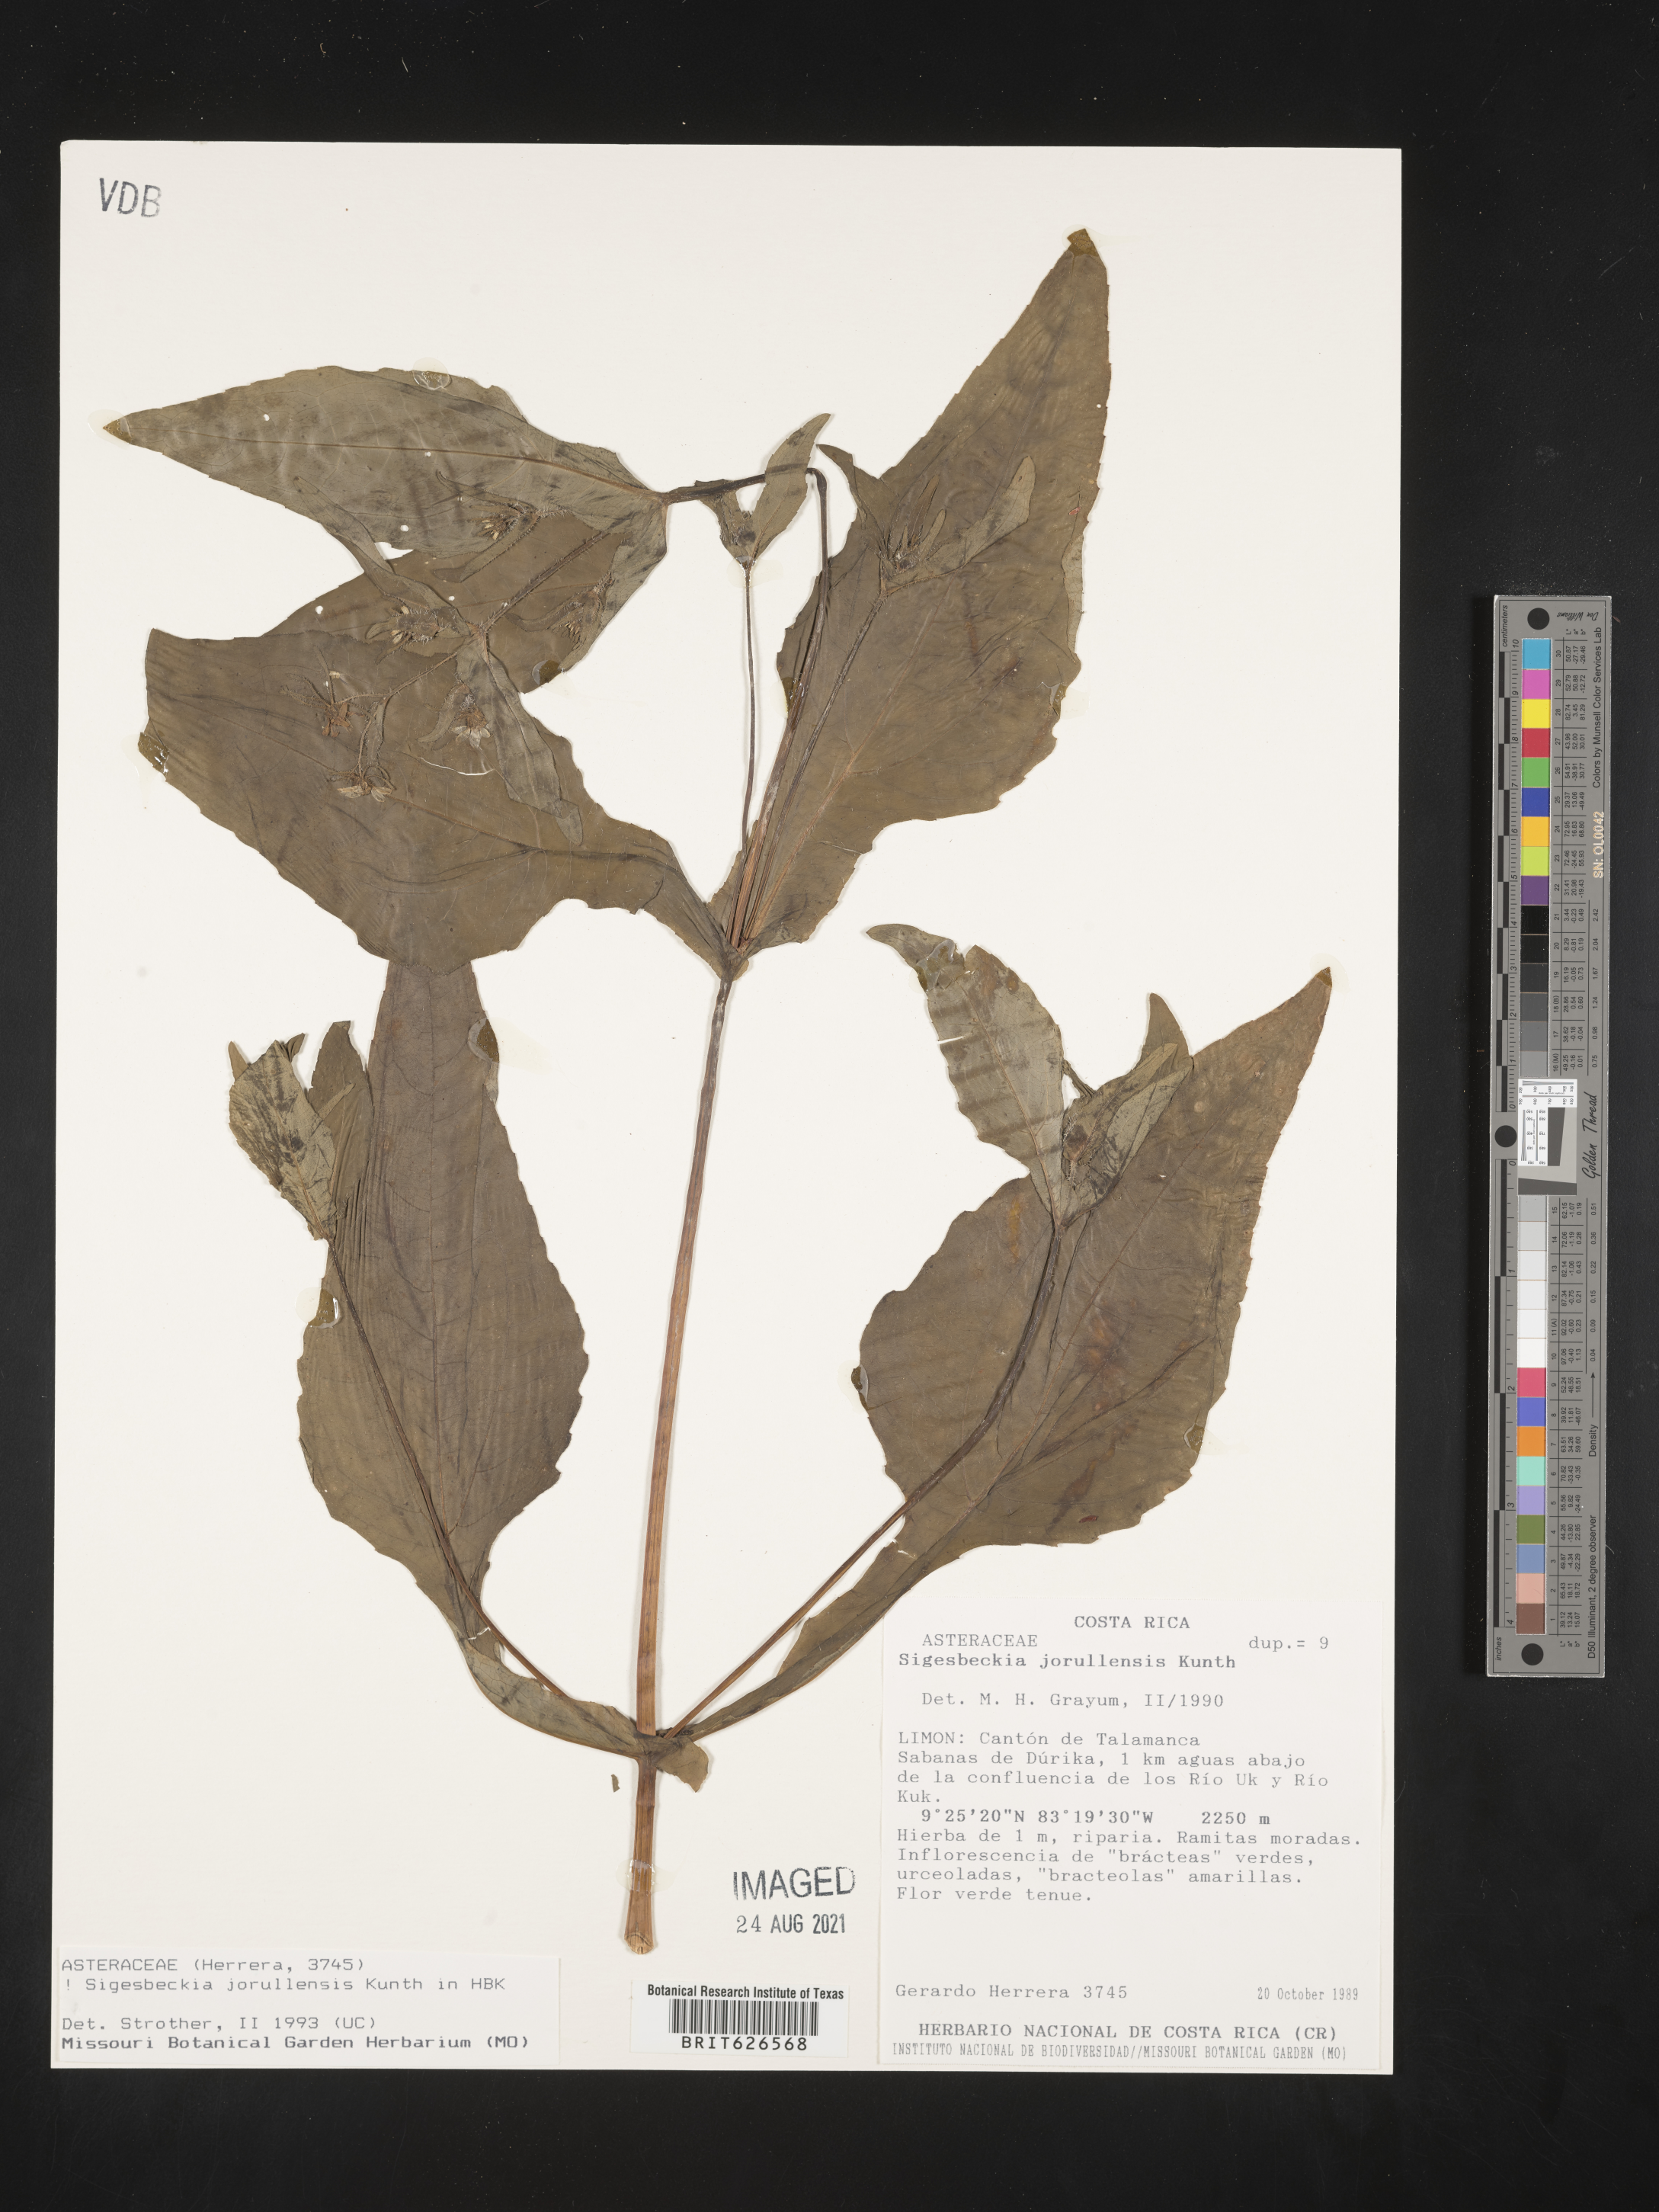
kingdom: Plantae
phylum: Tracheophyta
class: Magnoliopsida
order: Asterales
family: Asteraceae
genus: Sigesbeckia
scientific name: Sigesbeckia jorullensis
